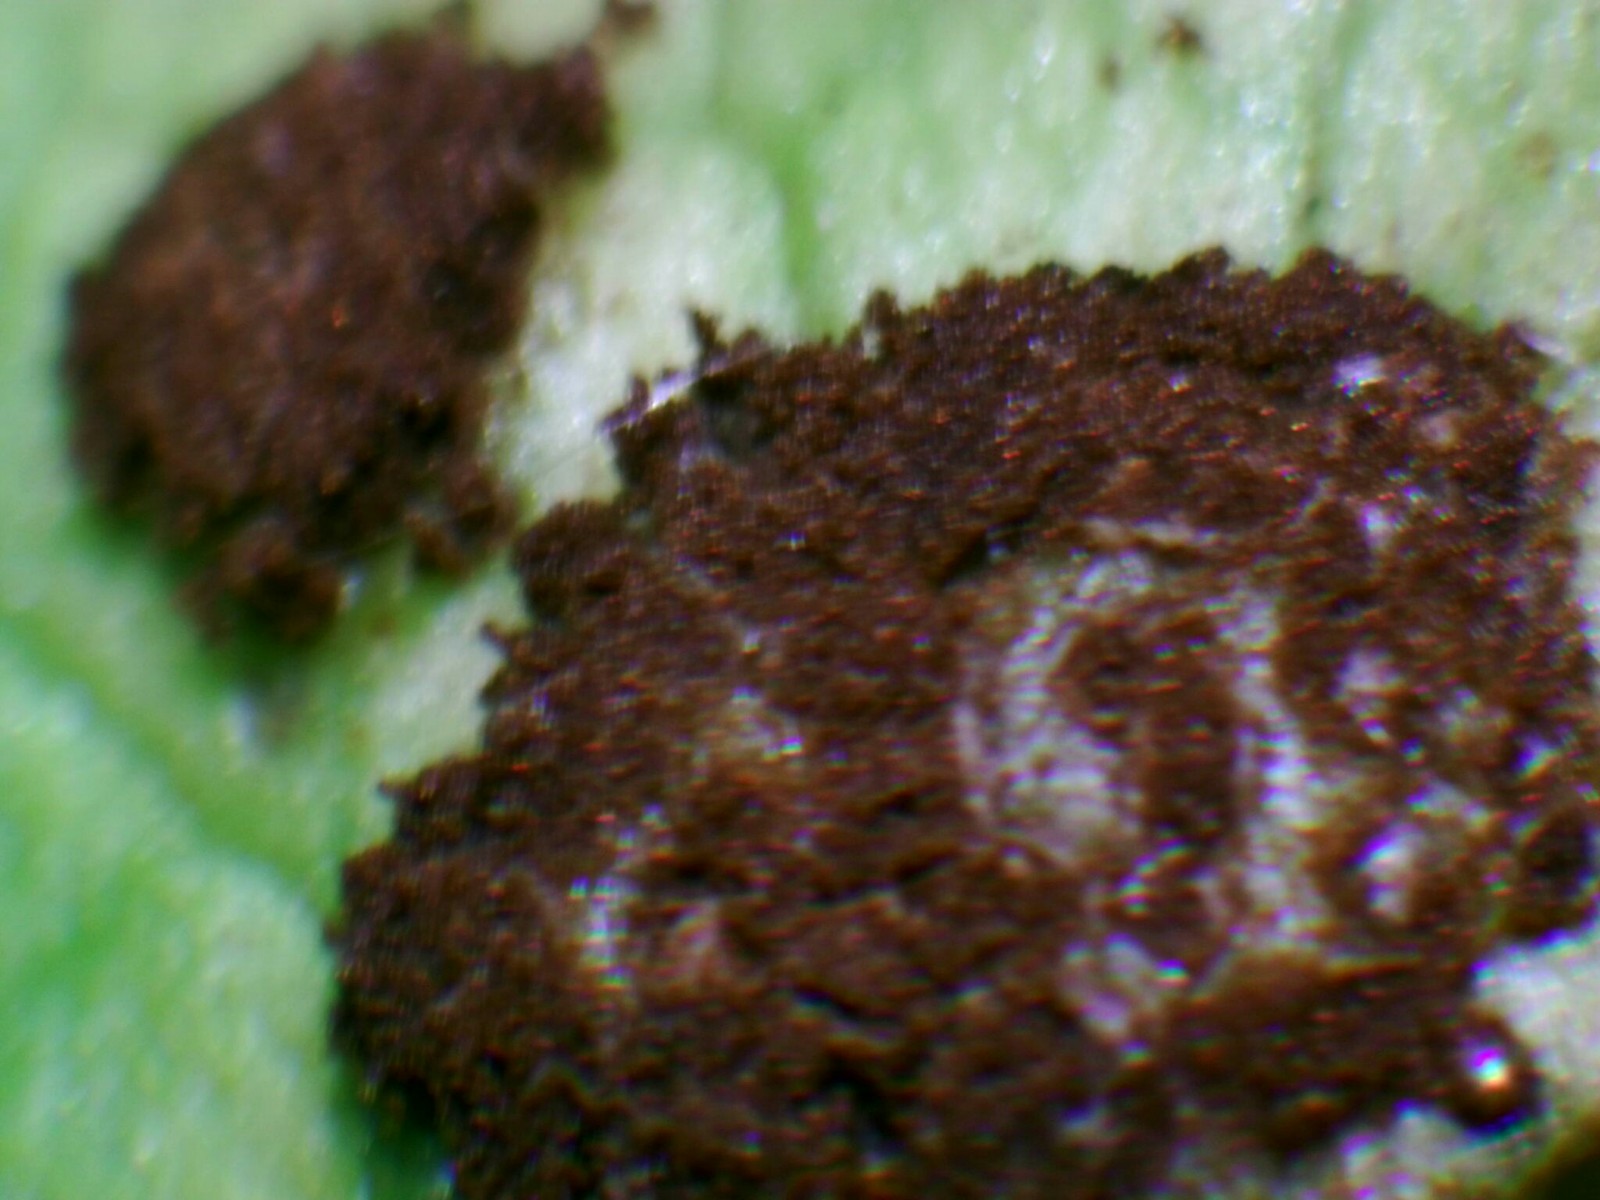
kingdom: Fungi
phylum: Basidiomycota
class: Pucciniomycetes
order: Pucciniales
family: Pucciniaceae
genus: Uromyces
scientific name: Uromyces ficariae
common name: vorterod-encellerust
